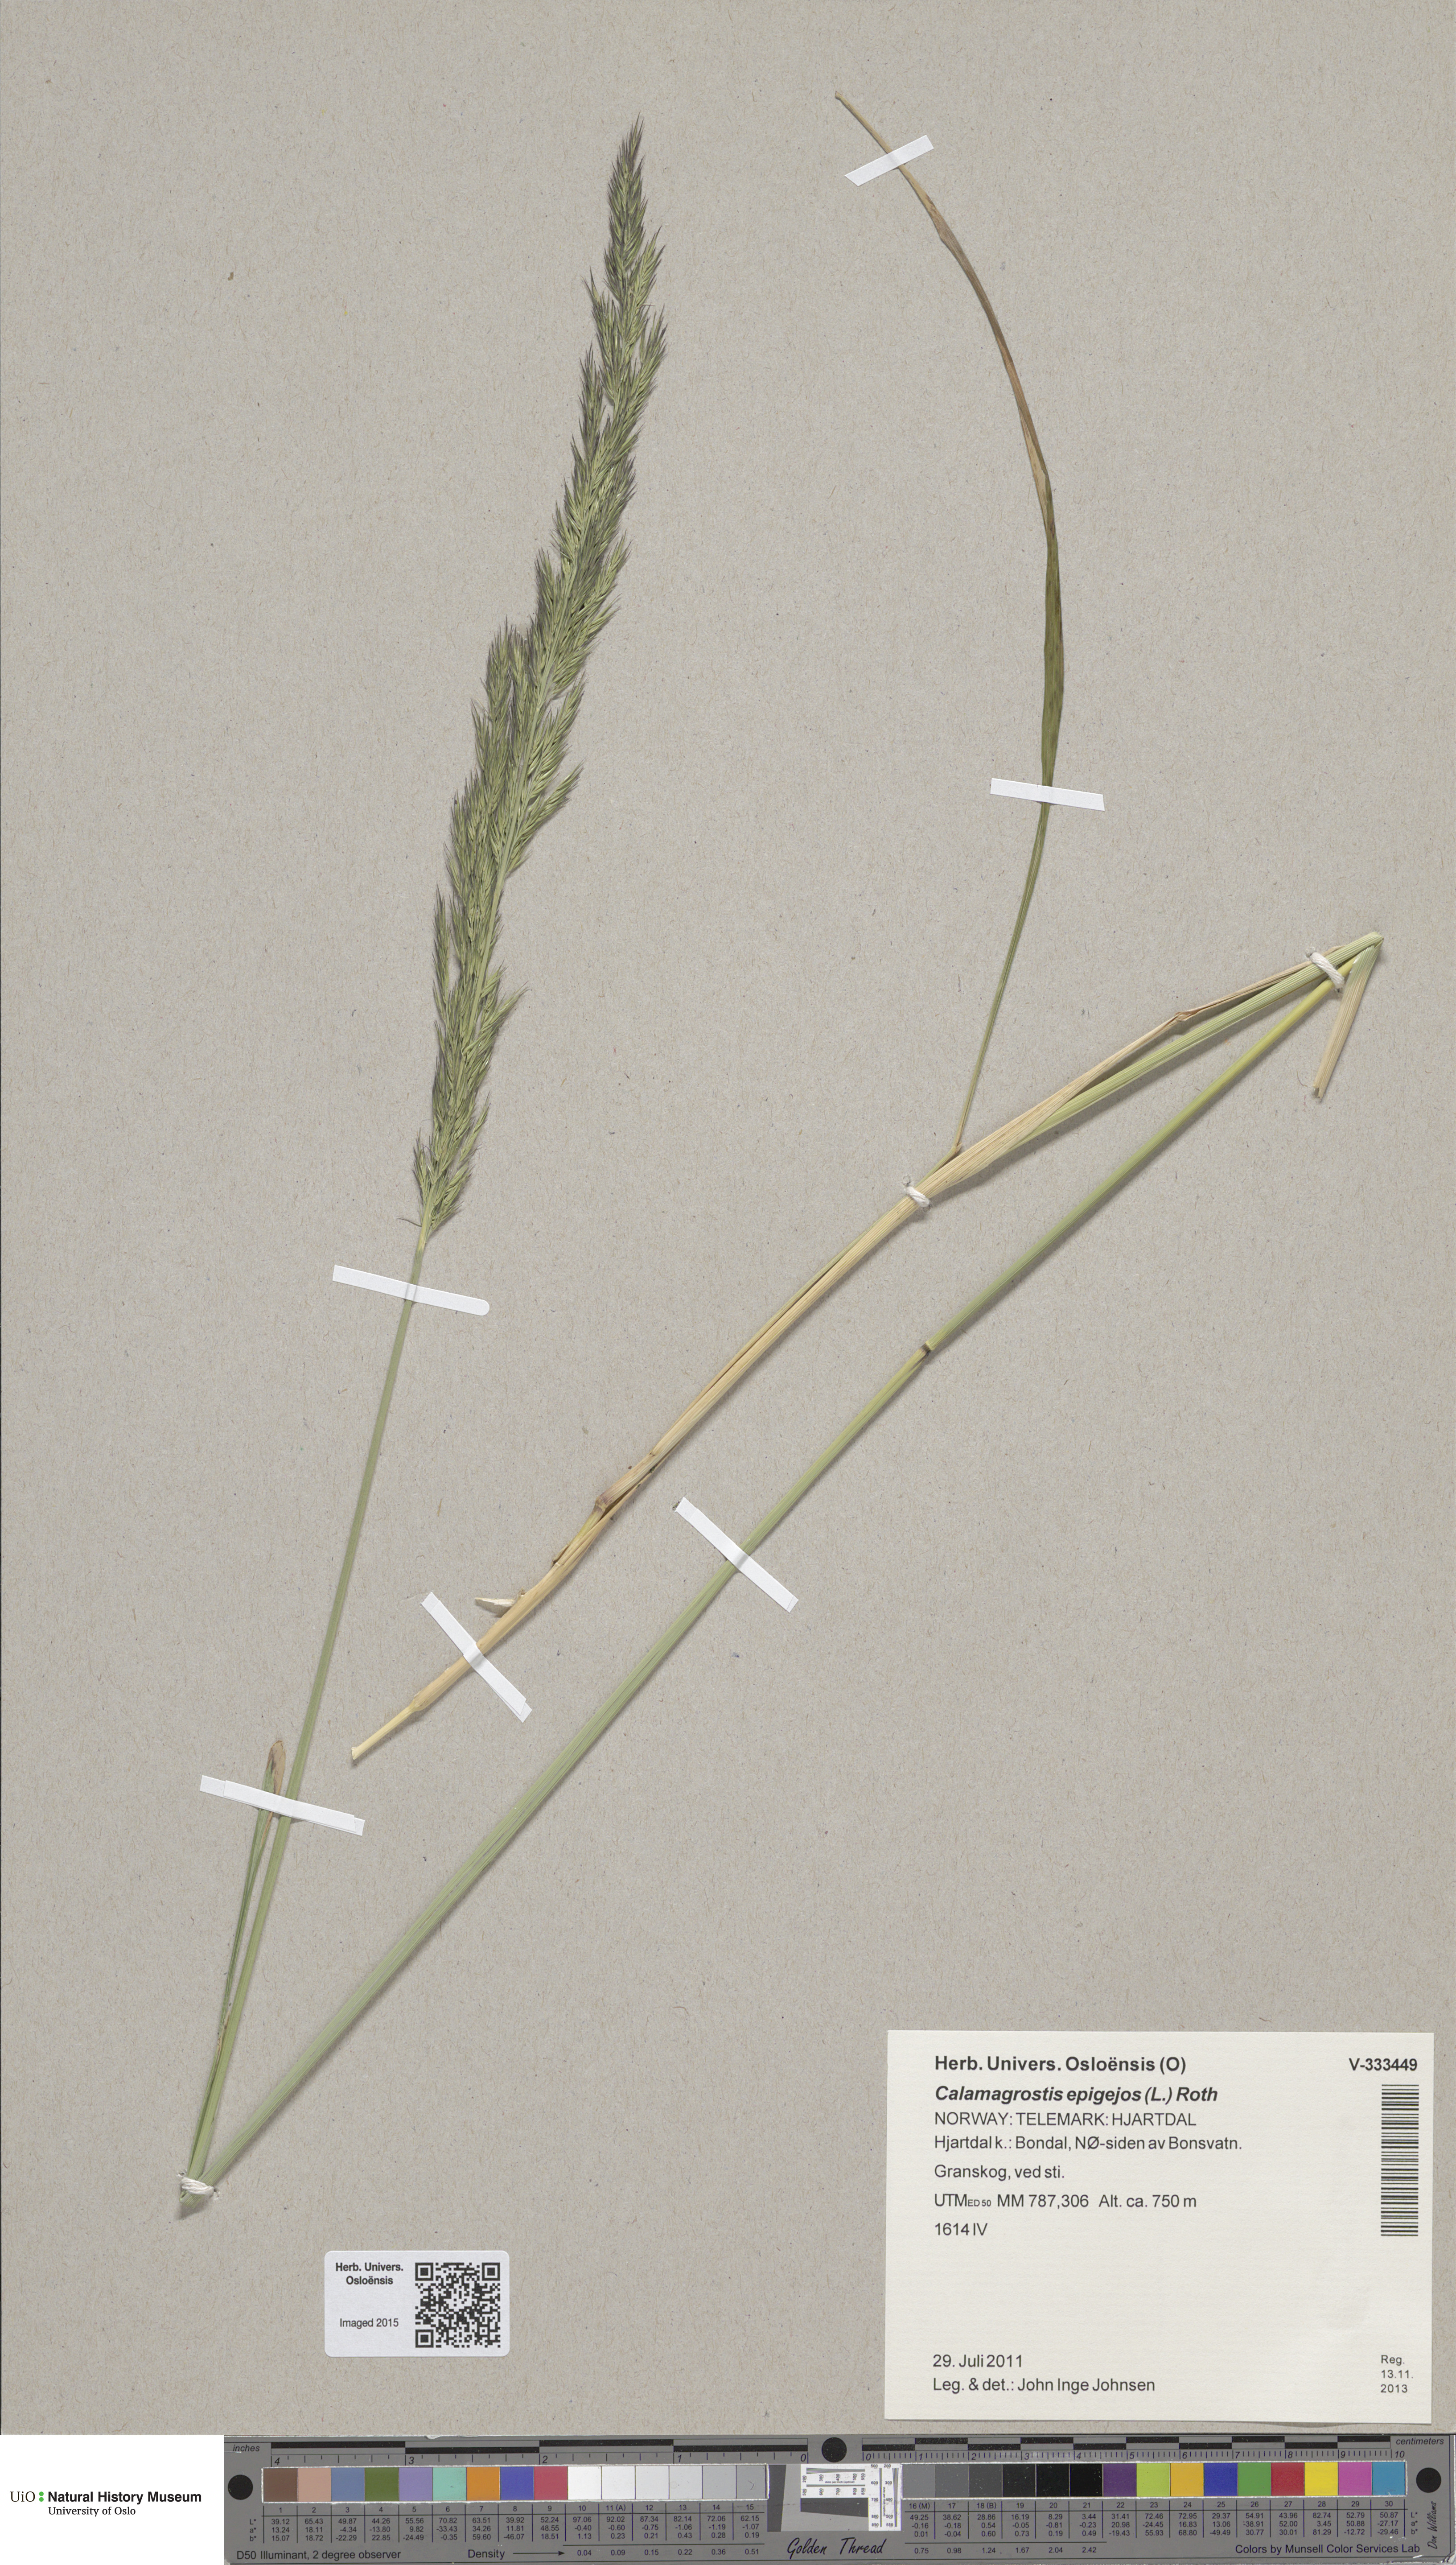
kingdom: Plantae
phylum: Tracheophyta
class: Liliopsida
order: Poales
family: Poaceae
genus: Calamagrostis
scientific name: Calamagrostis epigejos
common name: Wood small-reed
